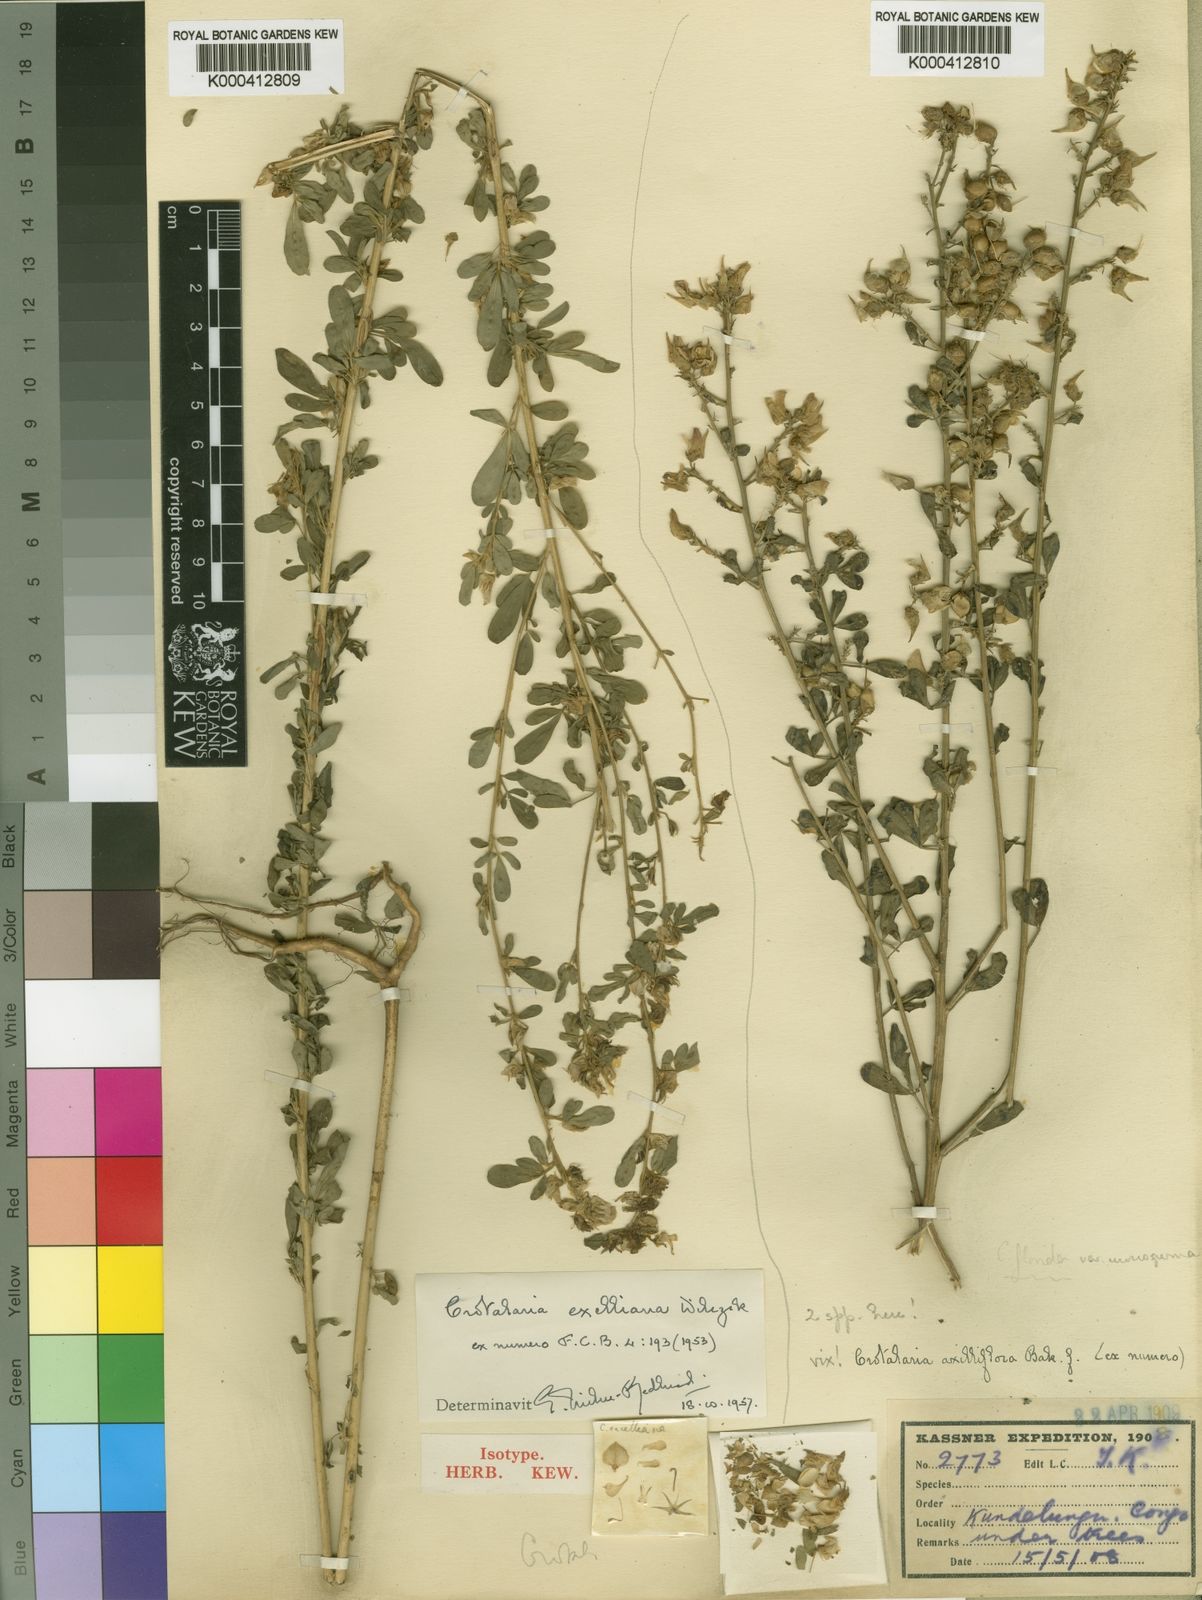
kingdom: Plantae
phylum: Tracheophyta
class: Magnoliopsida
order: Fabales
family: Fabaceae
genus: Crotalaria
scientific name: Crotalaria exelliana
